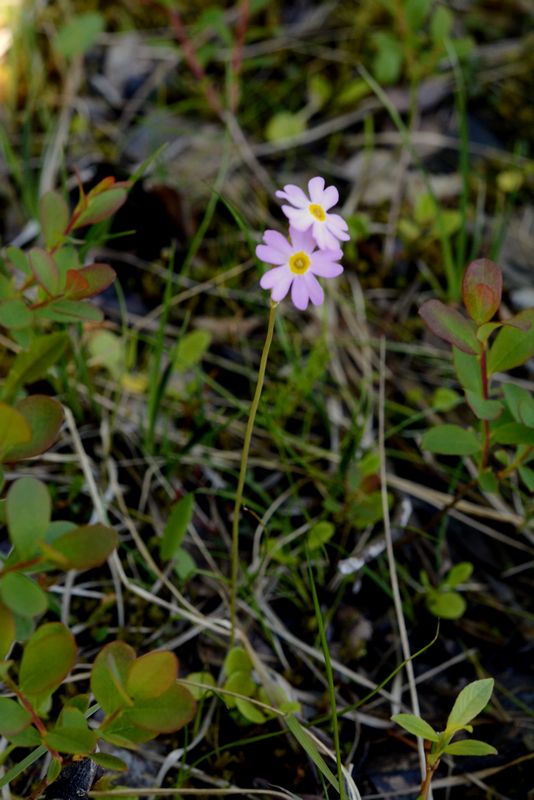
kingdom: Plantae
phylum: Tracheophyta
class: Magnoliopsida
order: Ericales
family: Primulaceae
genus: Primula
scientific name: Primula nutans
